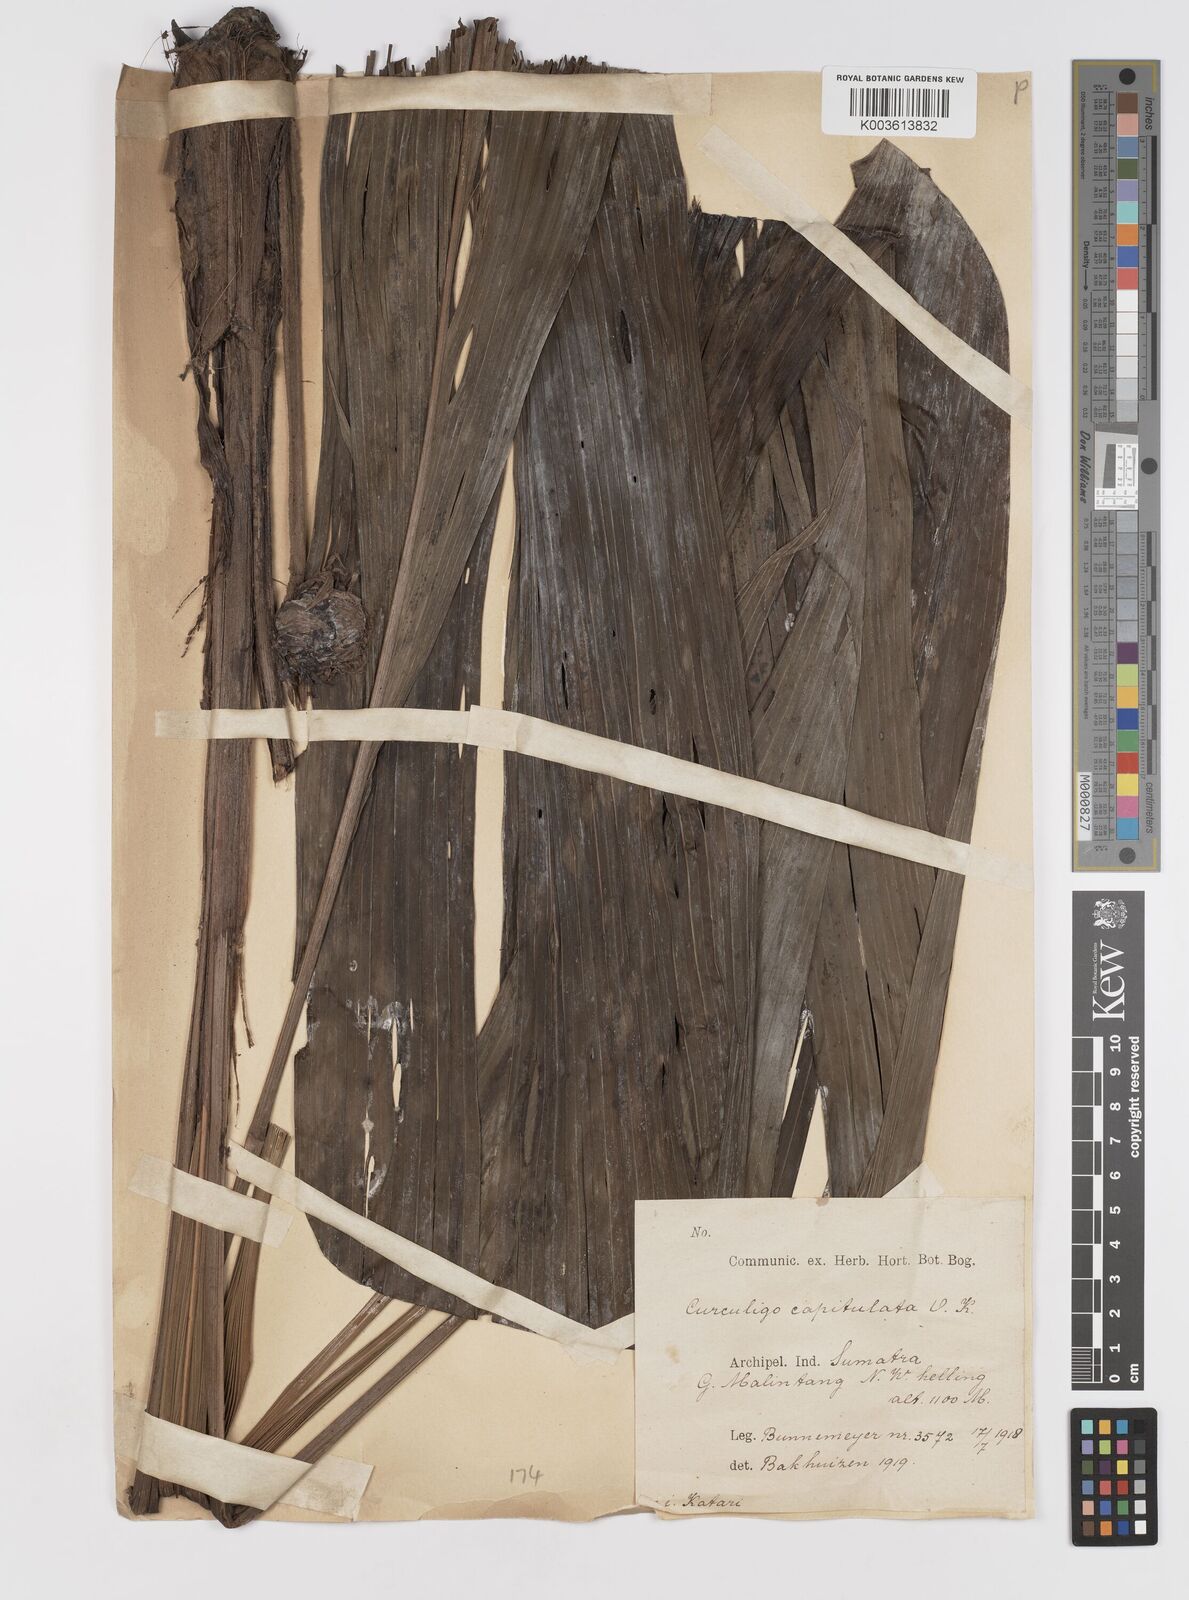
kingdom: Plantae
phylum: Tracheophyta
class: Liliopsida
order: Asparagales
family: Hypoxidaceae
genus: Curculigo
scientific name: Curculigo capitulata
